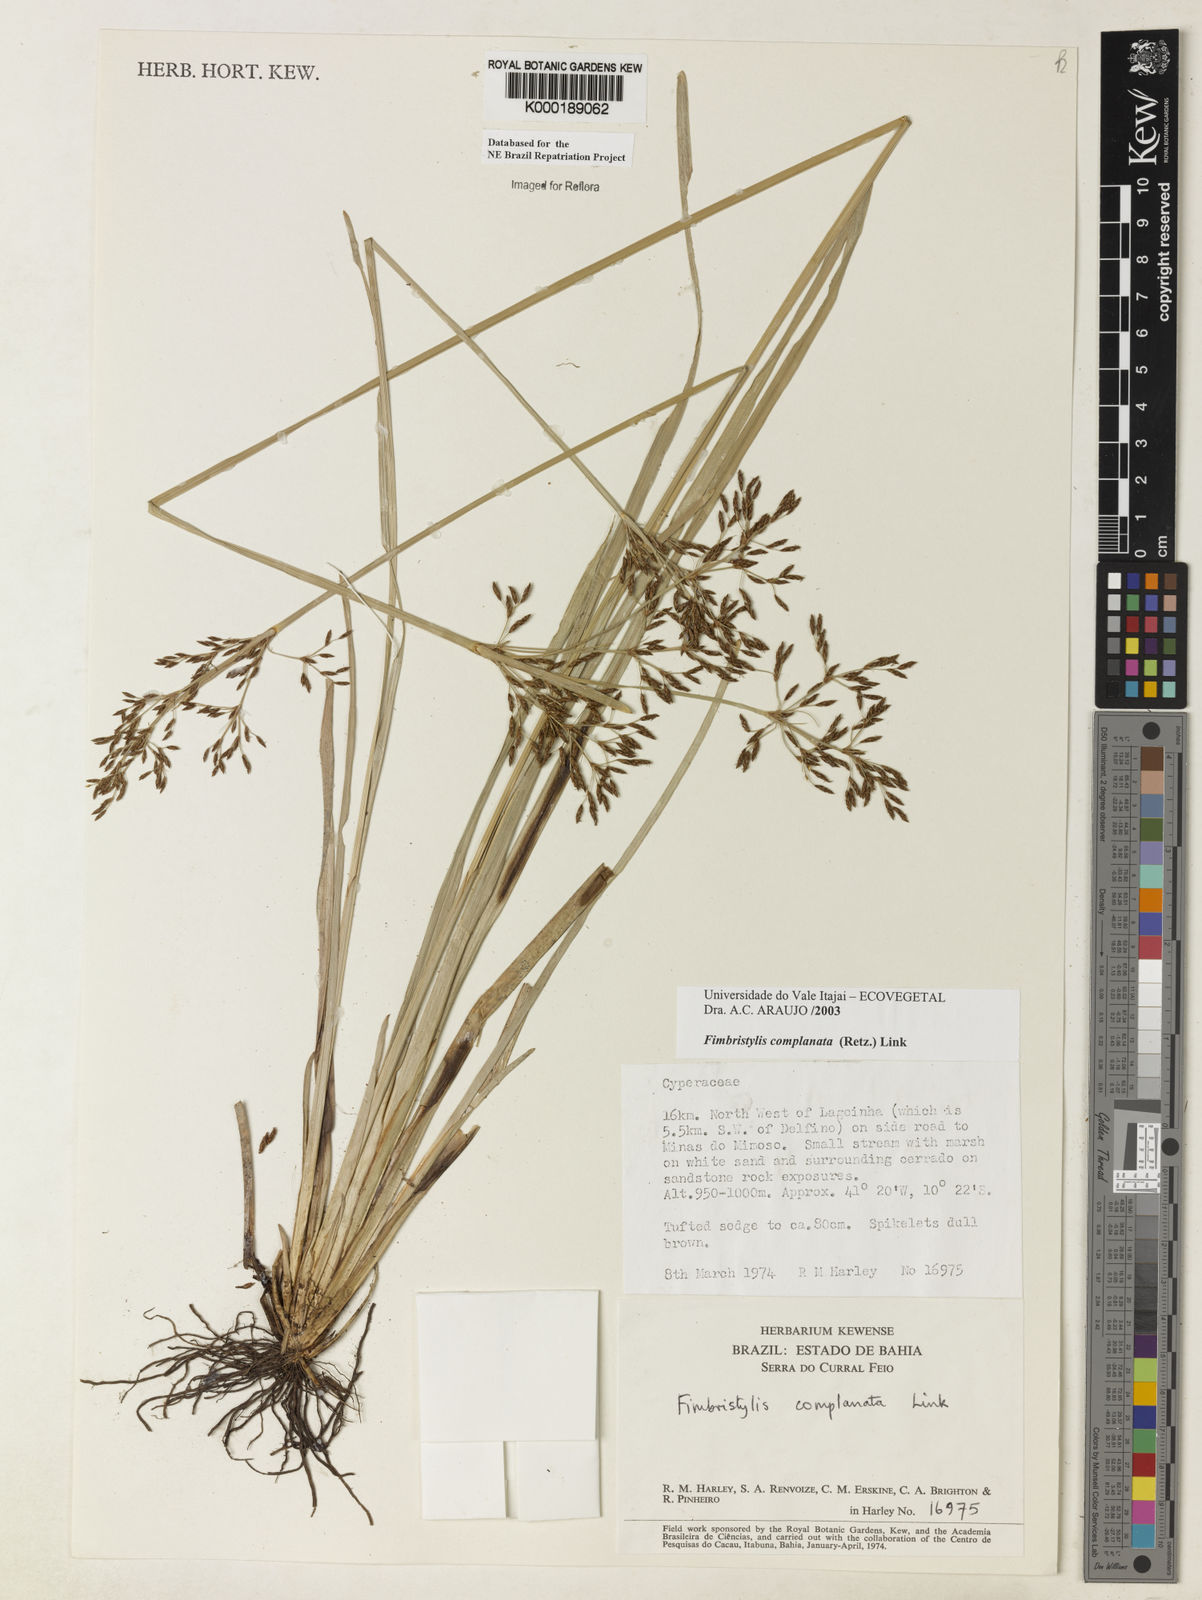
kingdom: Plantae
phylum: Tracheophyta
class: Liliopsida
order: Poales
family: Cyperaceae
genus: Fimbristylis
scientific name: Fimbristylis complanata
